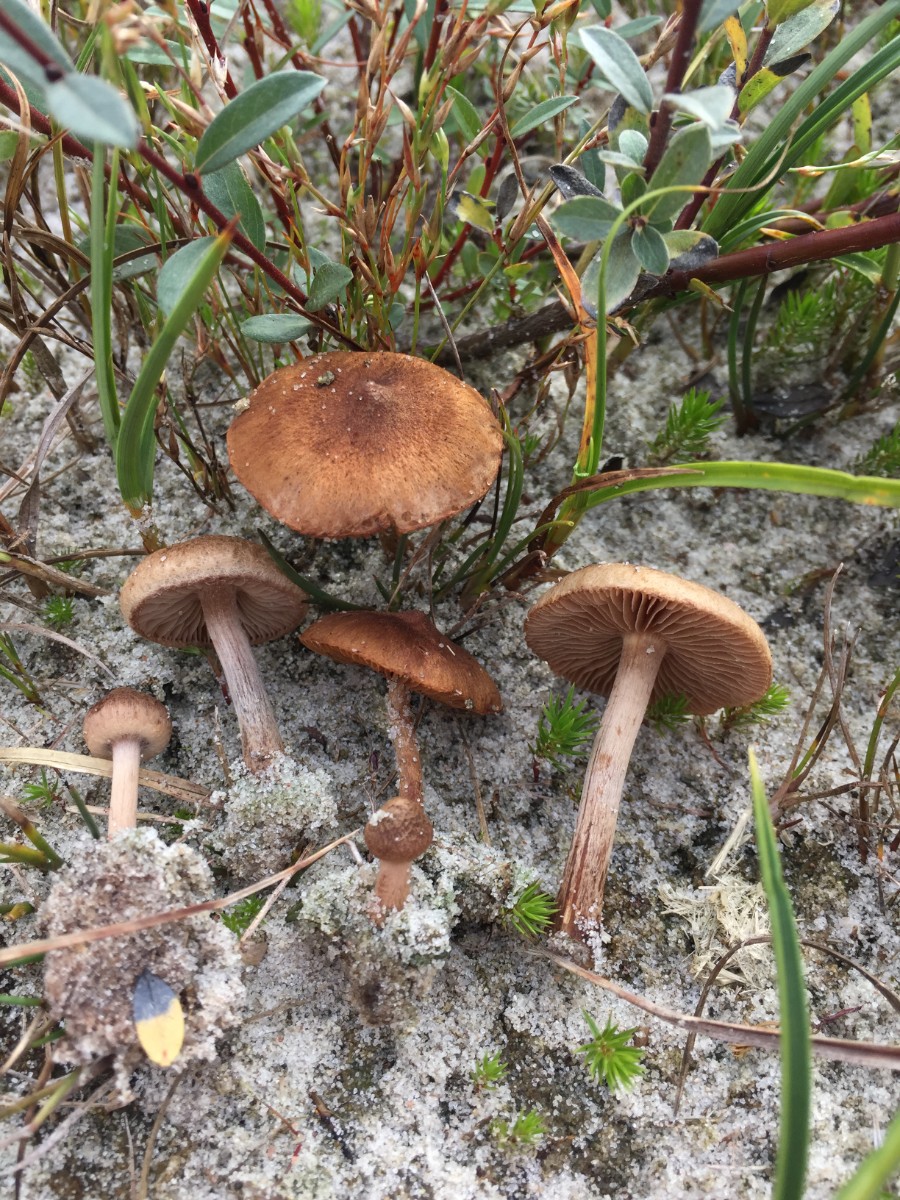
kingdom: Fungi
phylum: Basidiomycota
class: Agaricomycetes
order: Agaricales
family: Inocybaceae
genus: Inocybe
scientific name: Inocybe lacera
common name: laset trævlhat
